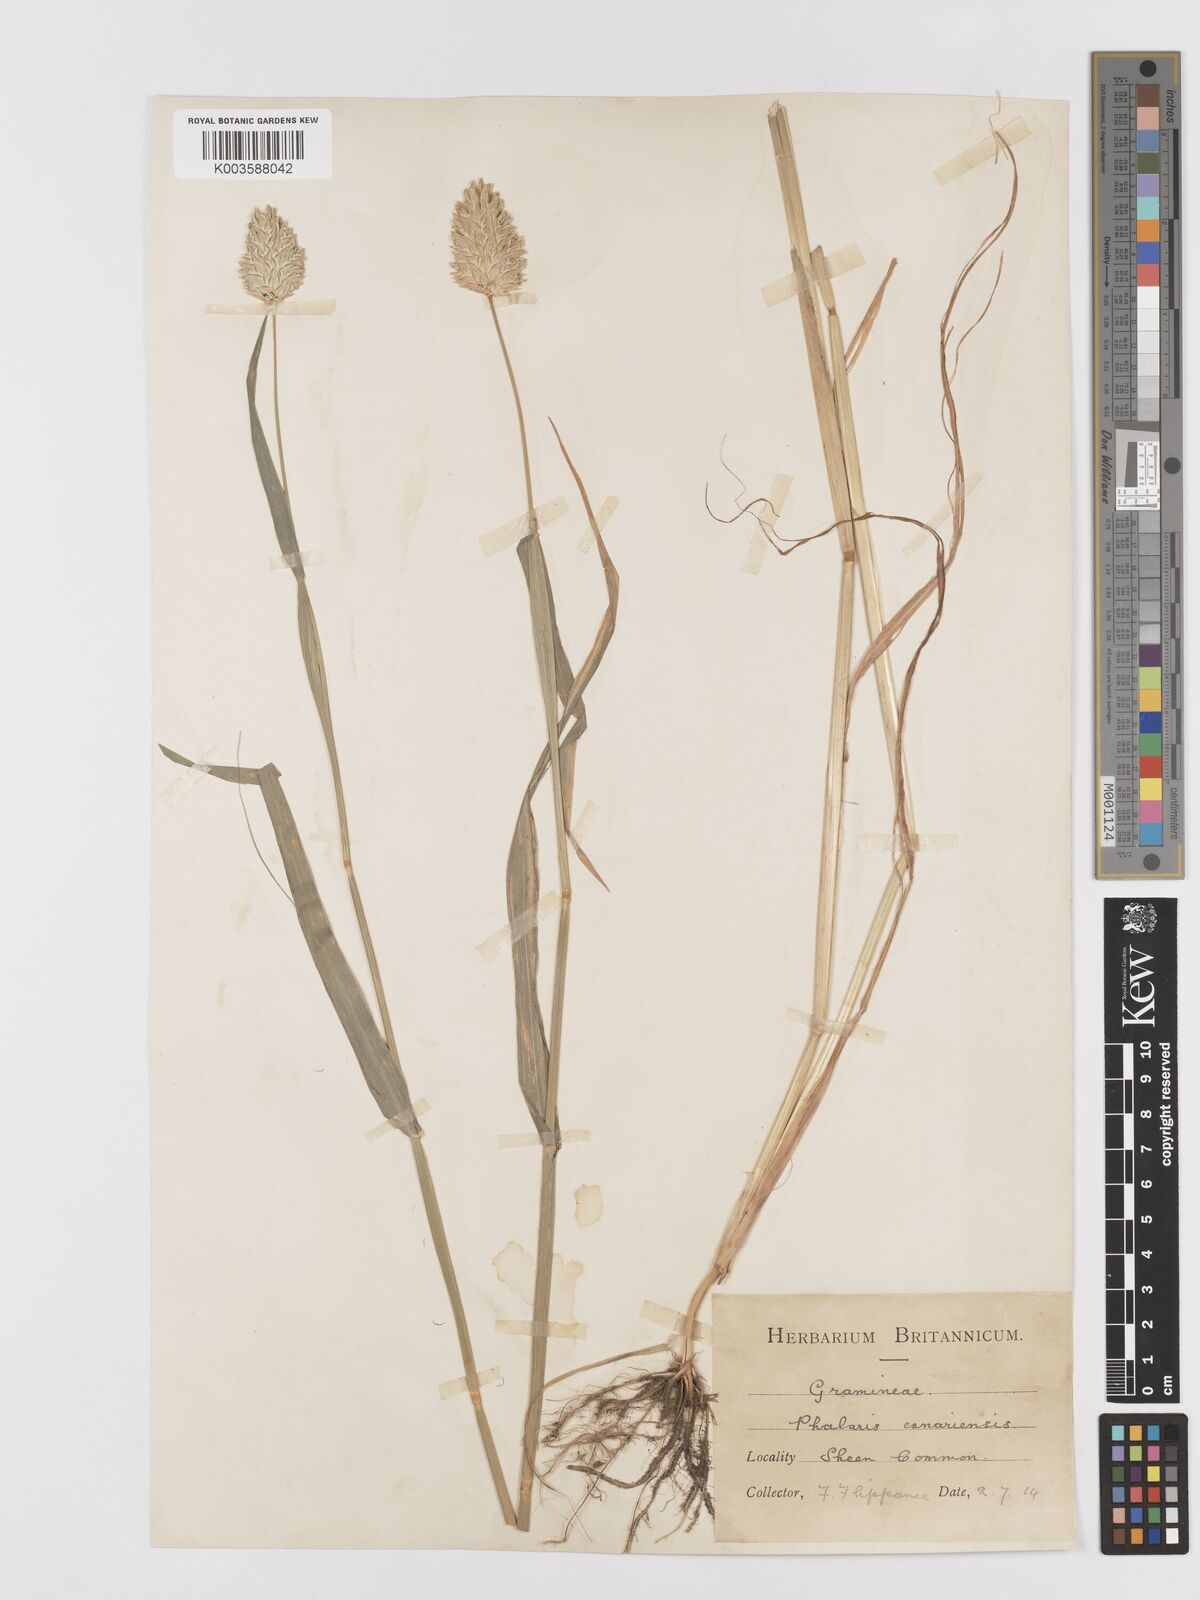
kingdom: Plantae
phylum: Tracheophyta
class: Liliopsida
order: Poales
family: Poaceae
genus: Phalaris
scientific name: Phalaris canariensis
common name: Annual canarygrass
